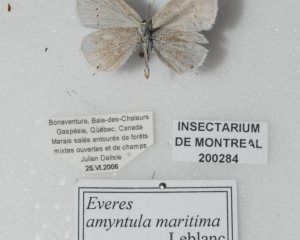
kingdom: Animalia
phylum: Arthropoda
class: Insecta
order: Lepidoptera
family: Lycaenidae
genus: Elkalyce
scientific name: Elkalyce comyntas
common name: Eastern Tailed-Blue
